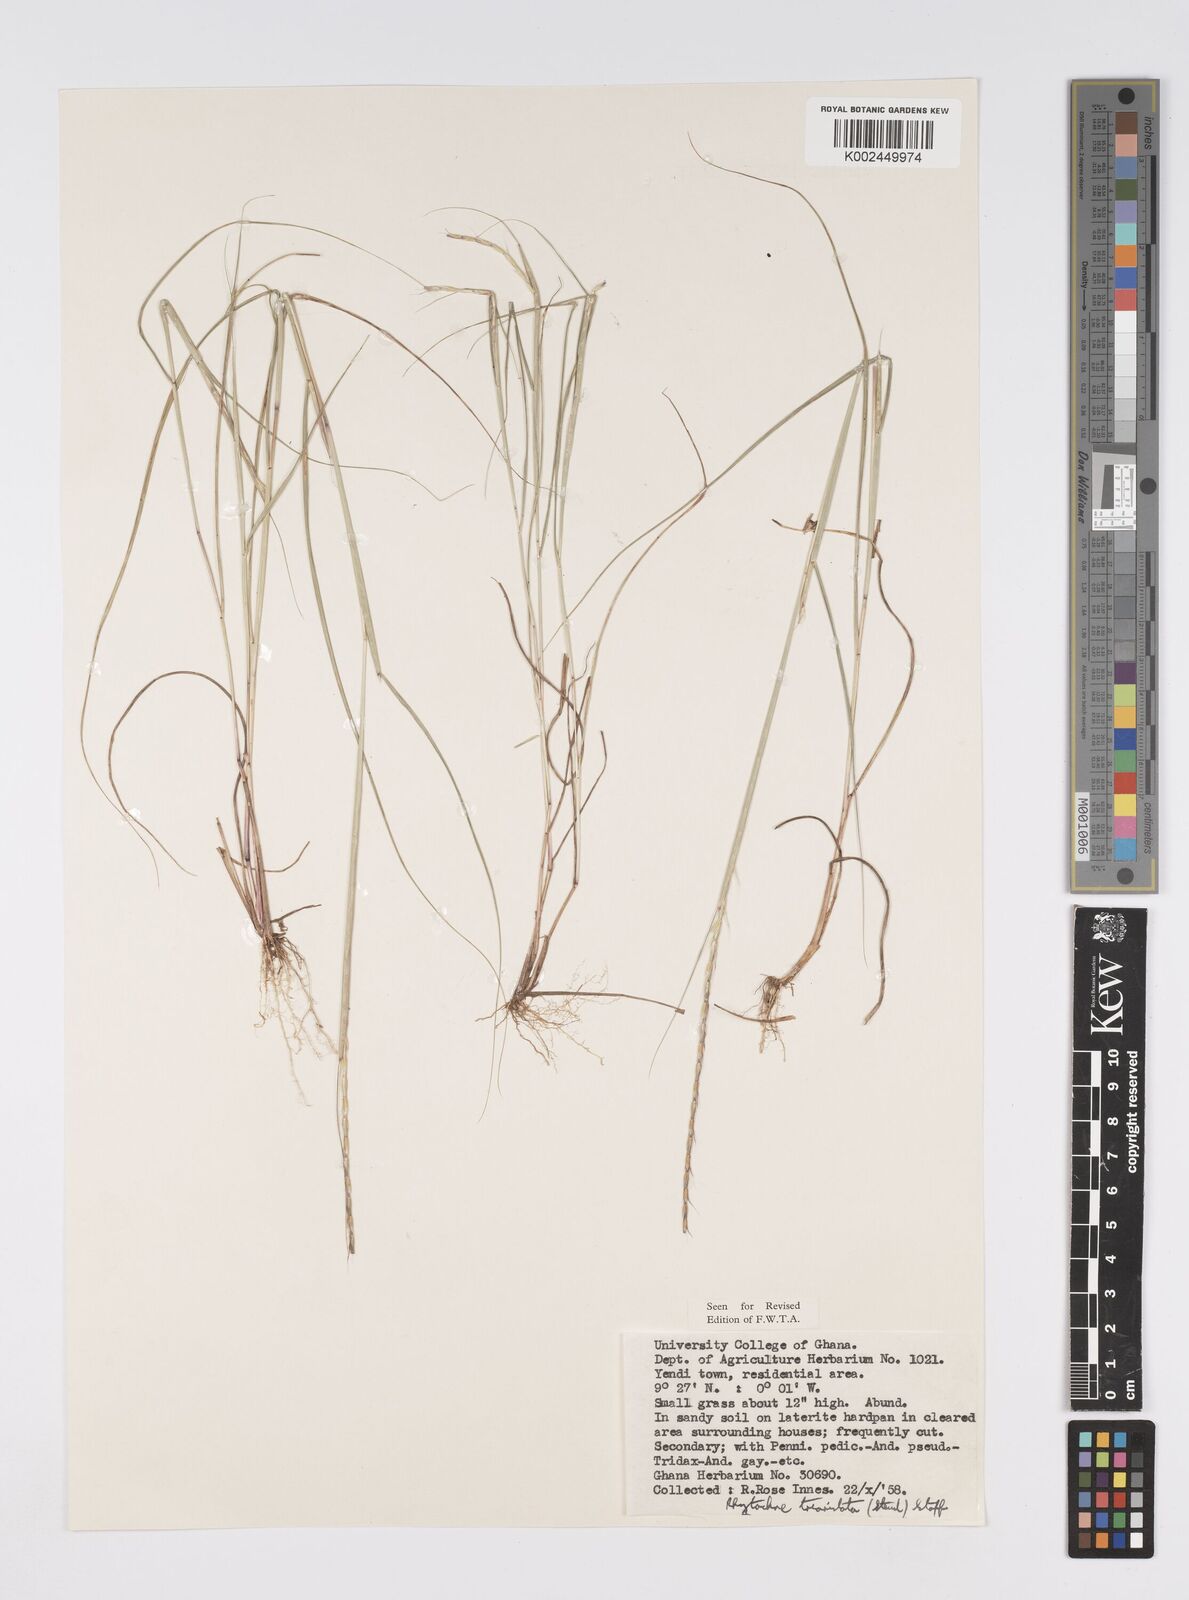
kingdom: Plantae
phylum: Tracheophyta
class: Liliopsida
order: Poales
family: Poaceae
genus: Rhytachne
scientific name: Rhytachne triaristata
